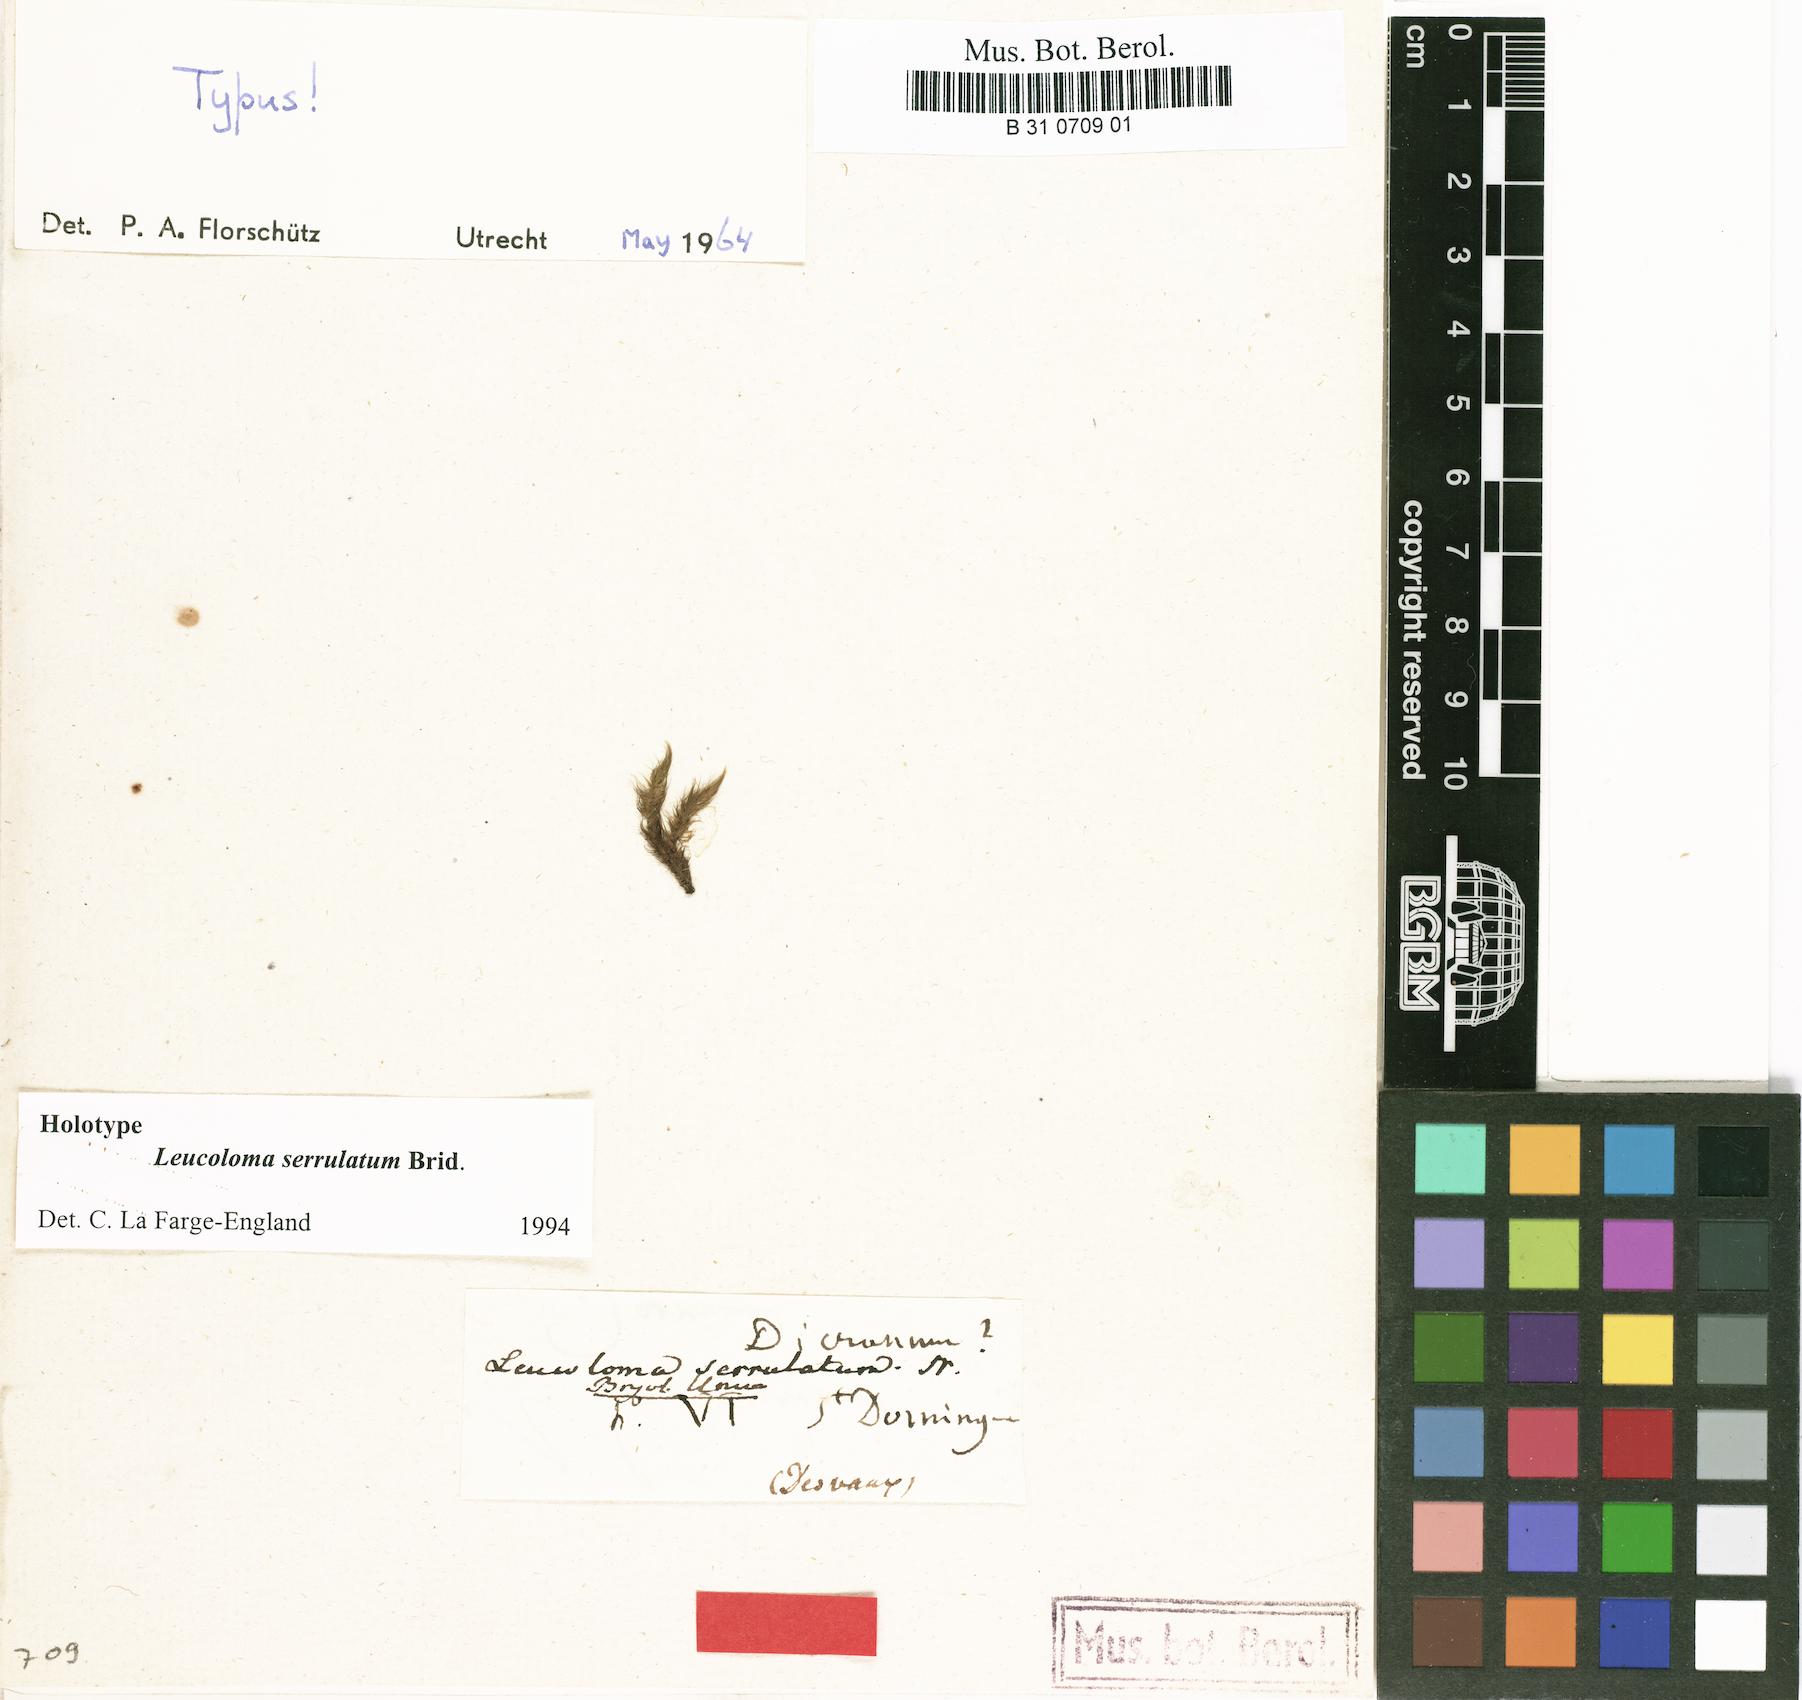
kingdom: Plantae
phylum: Bryophyta
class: Bryopsida
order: Dicranales
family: Dicranaceae
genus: Leucoloma
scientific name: Leucoloma serrulatum
